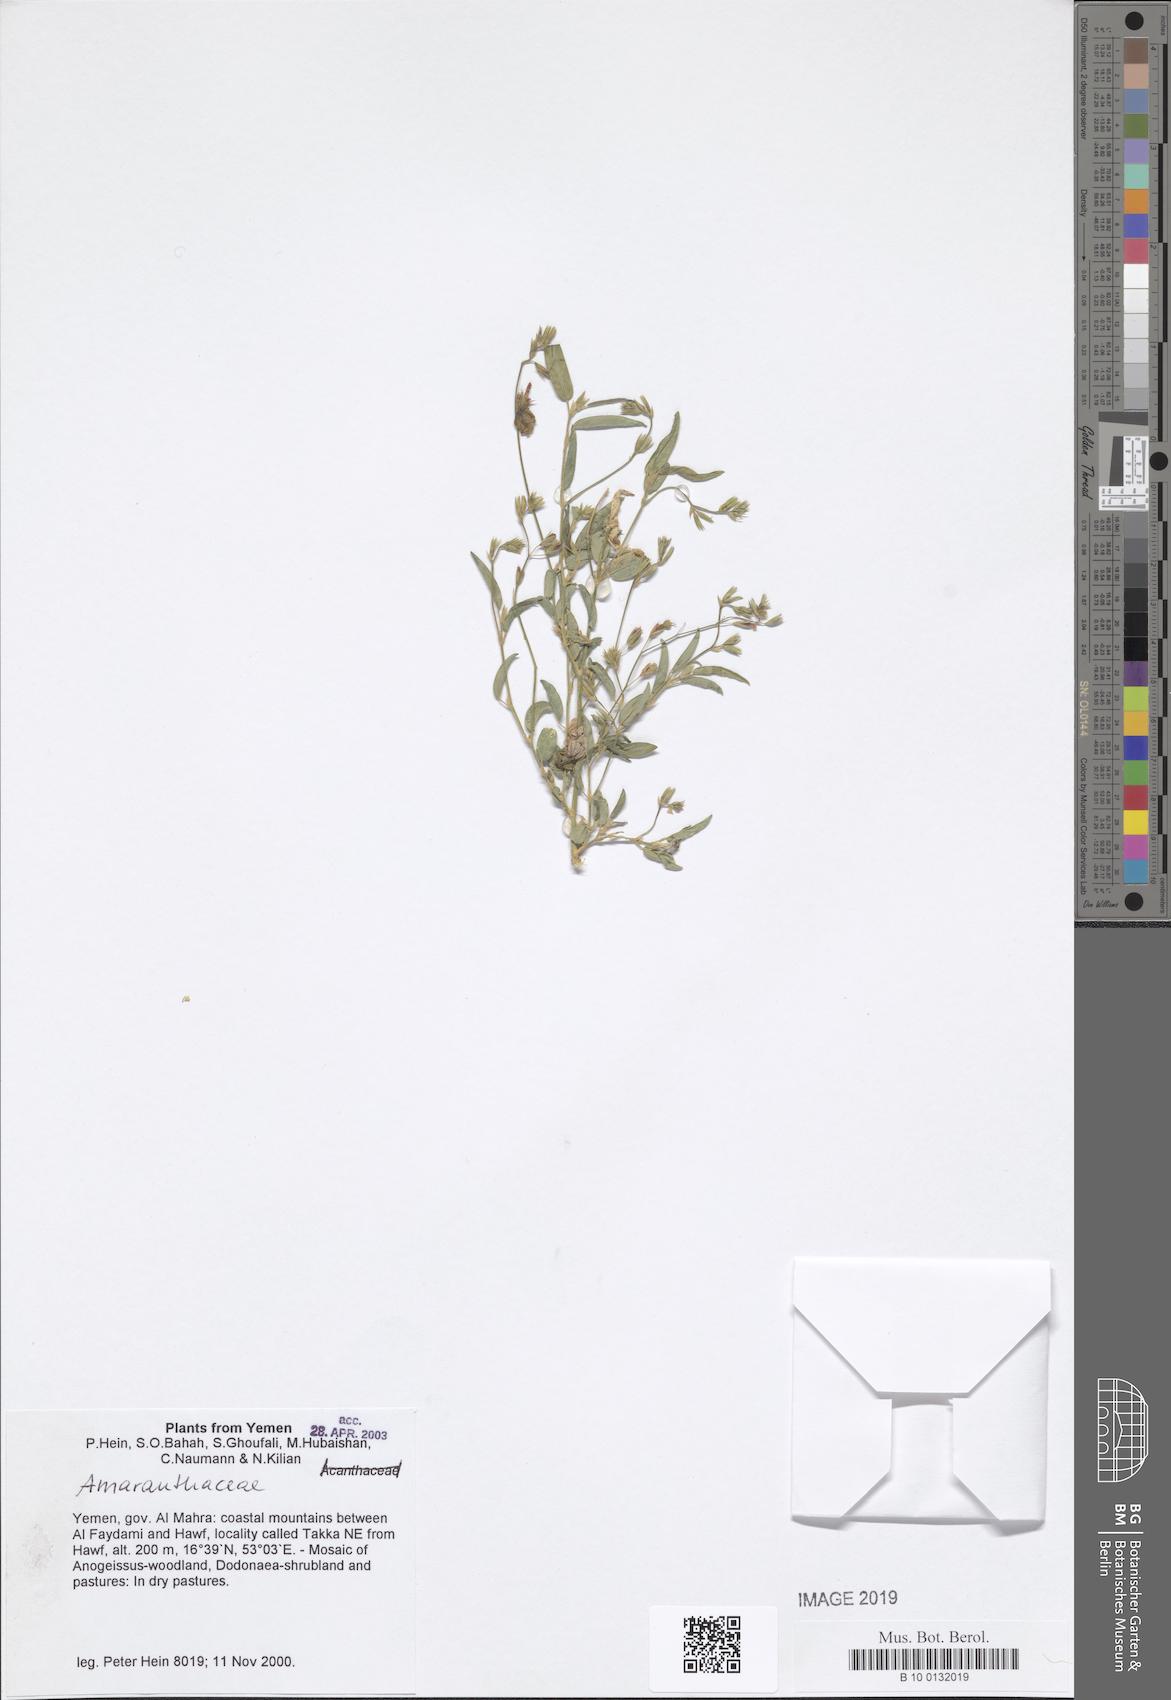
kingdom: Plantae
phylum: Tracheophyta
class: Magnoliopsida
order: Caryophyllales
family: Amaranthaceae
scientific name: Amaranthaceae
